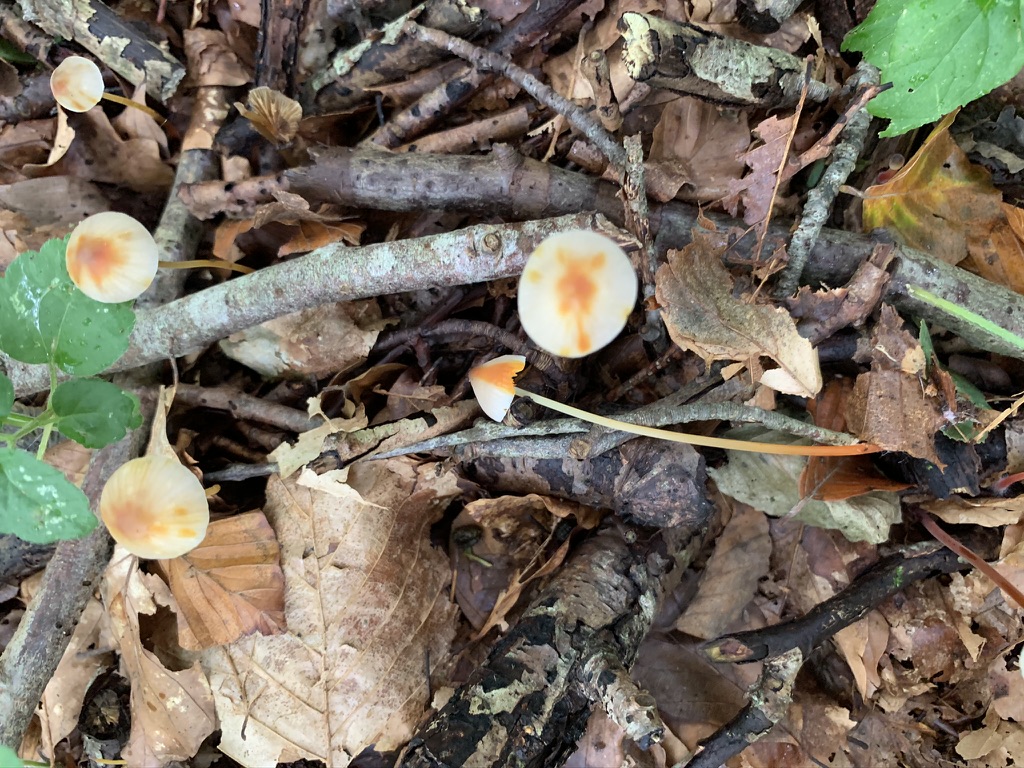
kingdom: Fungi
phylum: Basidiomycota
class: Agaricomycetes
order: Agaricales
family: Mycenaceae
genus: Mycena
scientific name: Mycena crocata
